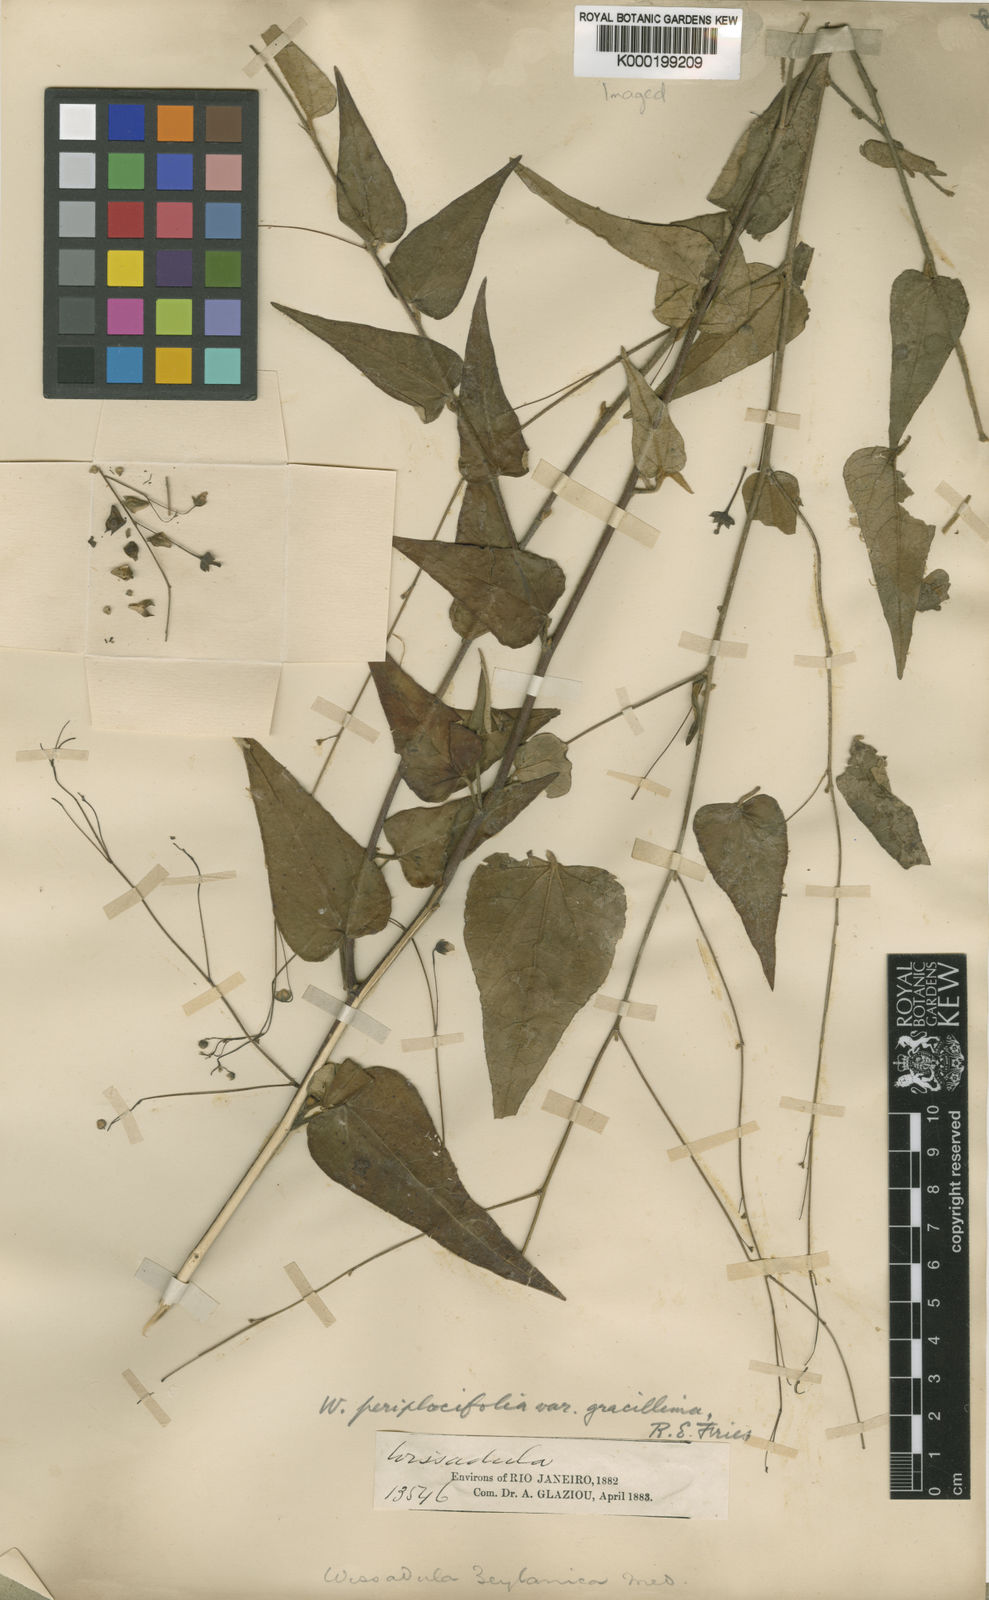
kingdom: Plantae
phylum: Tracheophyta
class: Magnoliopsida
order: Malvales
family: Malvaceae
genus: Wissadula
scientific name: Wissadula periplocifolia
